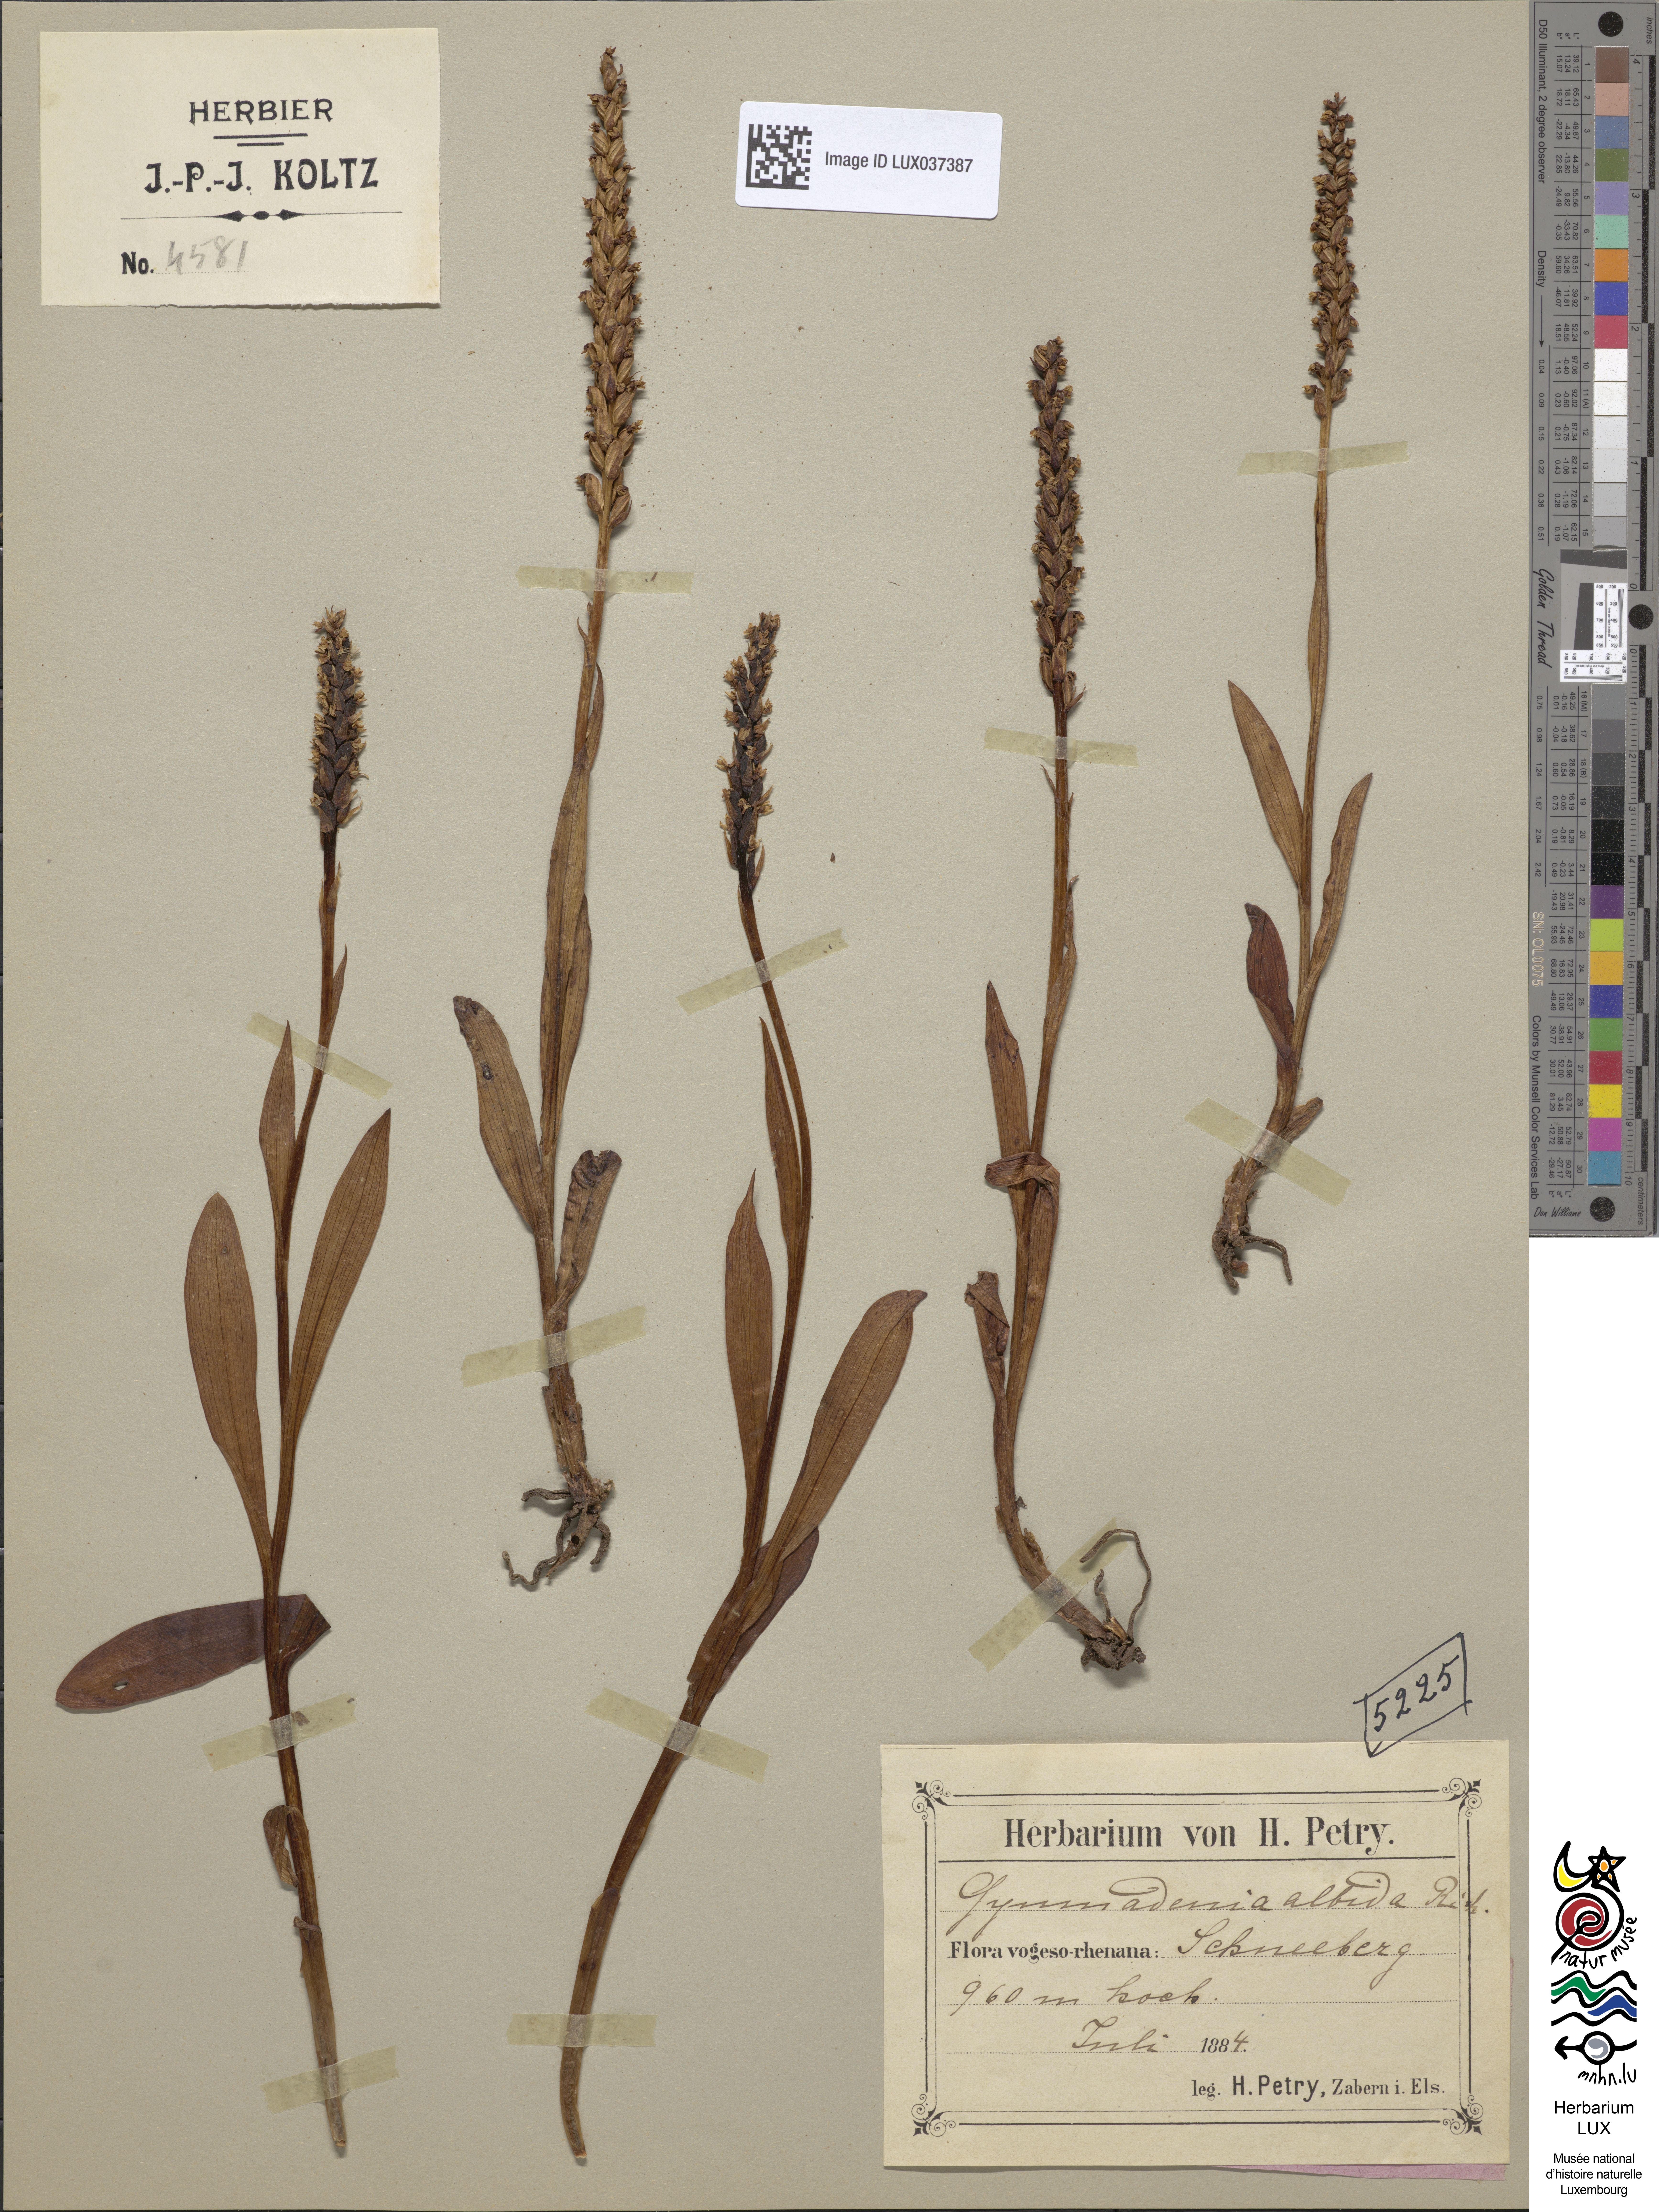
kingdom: Plantae
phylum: Tracheophyta
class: Liliopsida
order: Asparagales
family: Orchidaceae
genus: Pseudorchis
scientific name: Pseudorchis albida
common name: Small-white orchid
